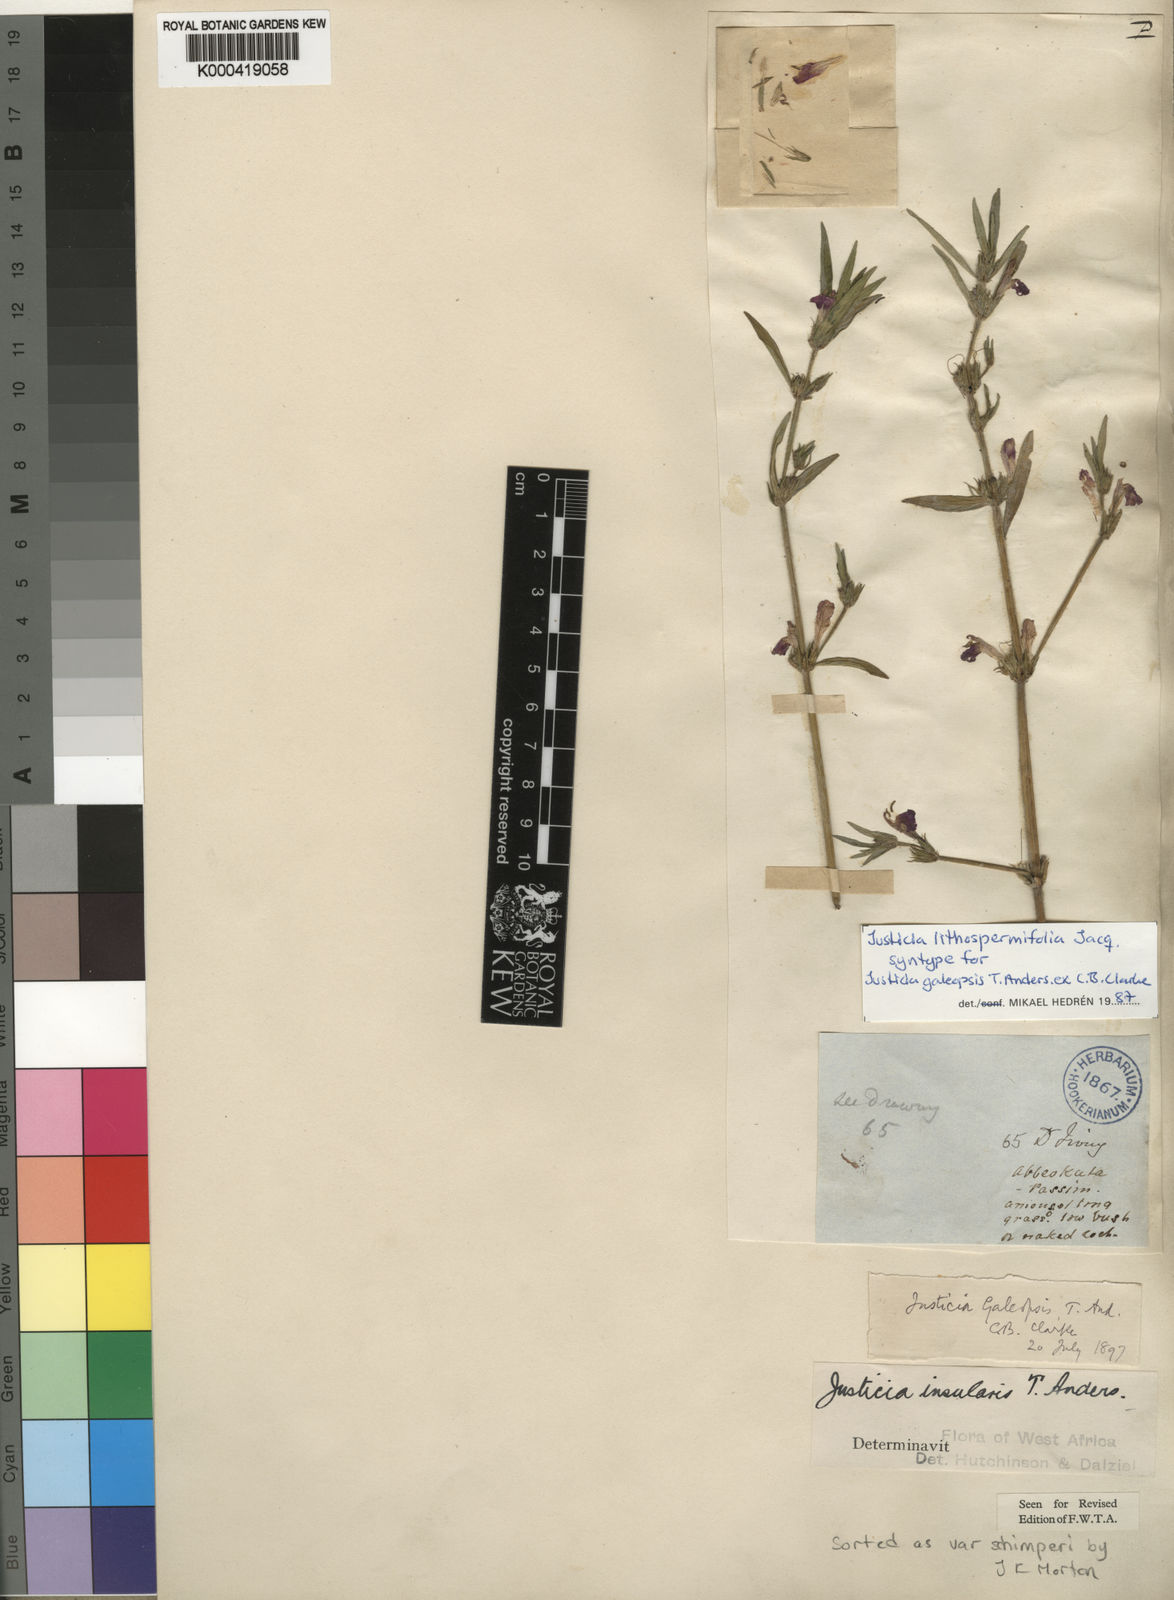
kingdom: Plantae
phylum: Tracheophyta
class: Magnoliopsida
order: Lamiales
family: Acanthaceae
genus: Justicia
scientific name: Justicia ladanoides
